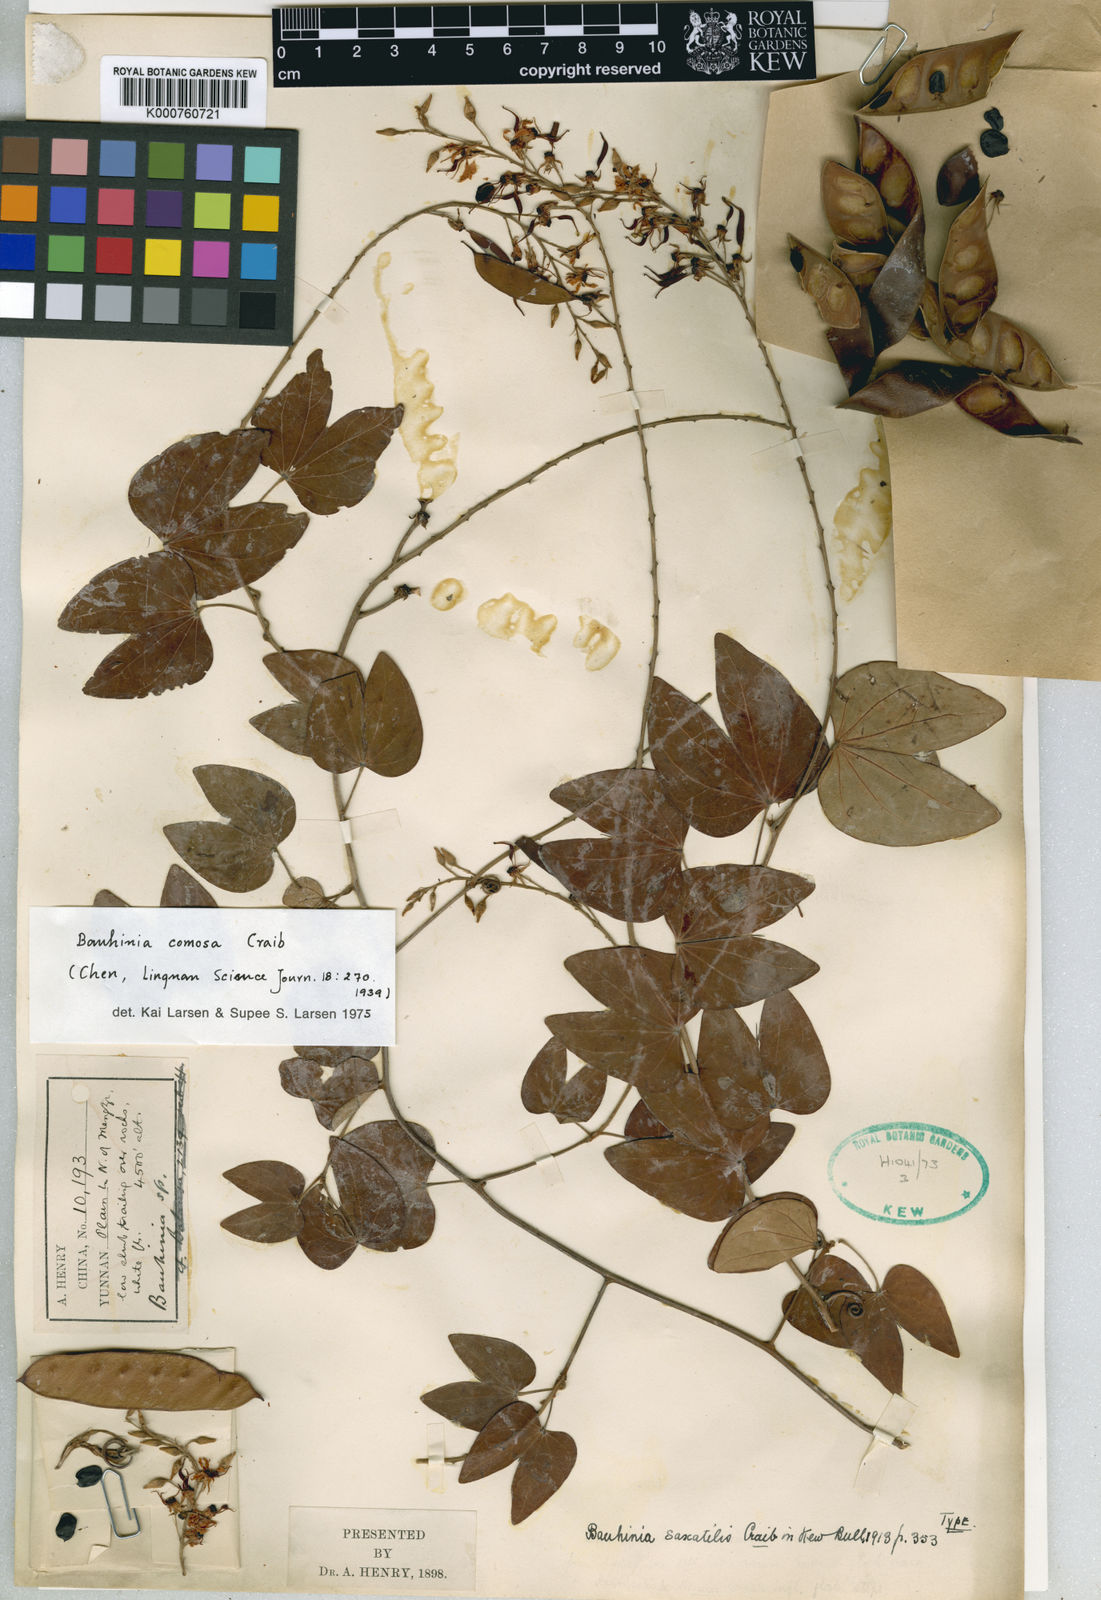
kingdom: Plantae
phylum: Tracheophyta
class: Magnoliopsida
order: Fabales
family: Fabaceae
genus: Phanera
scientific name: Phanera comosa
